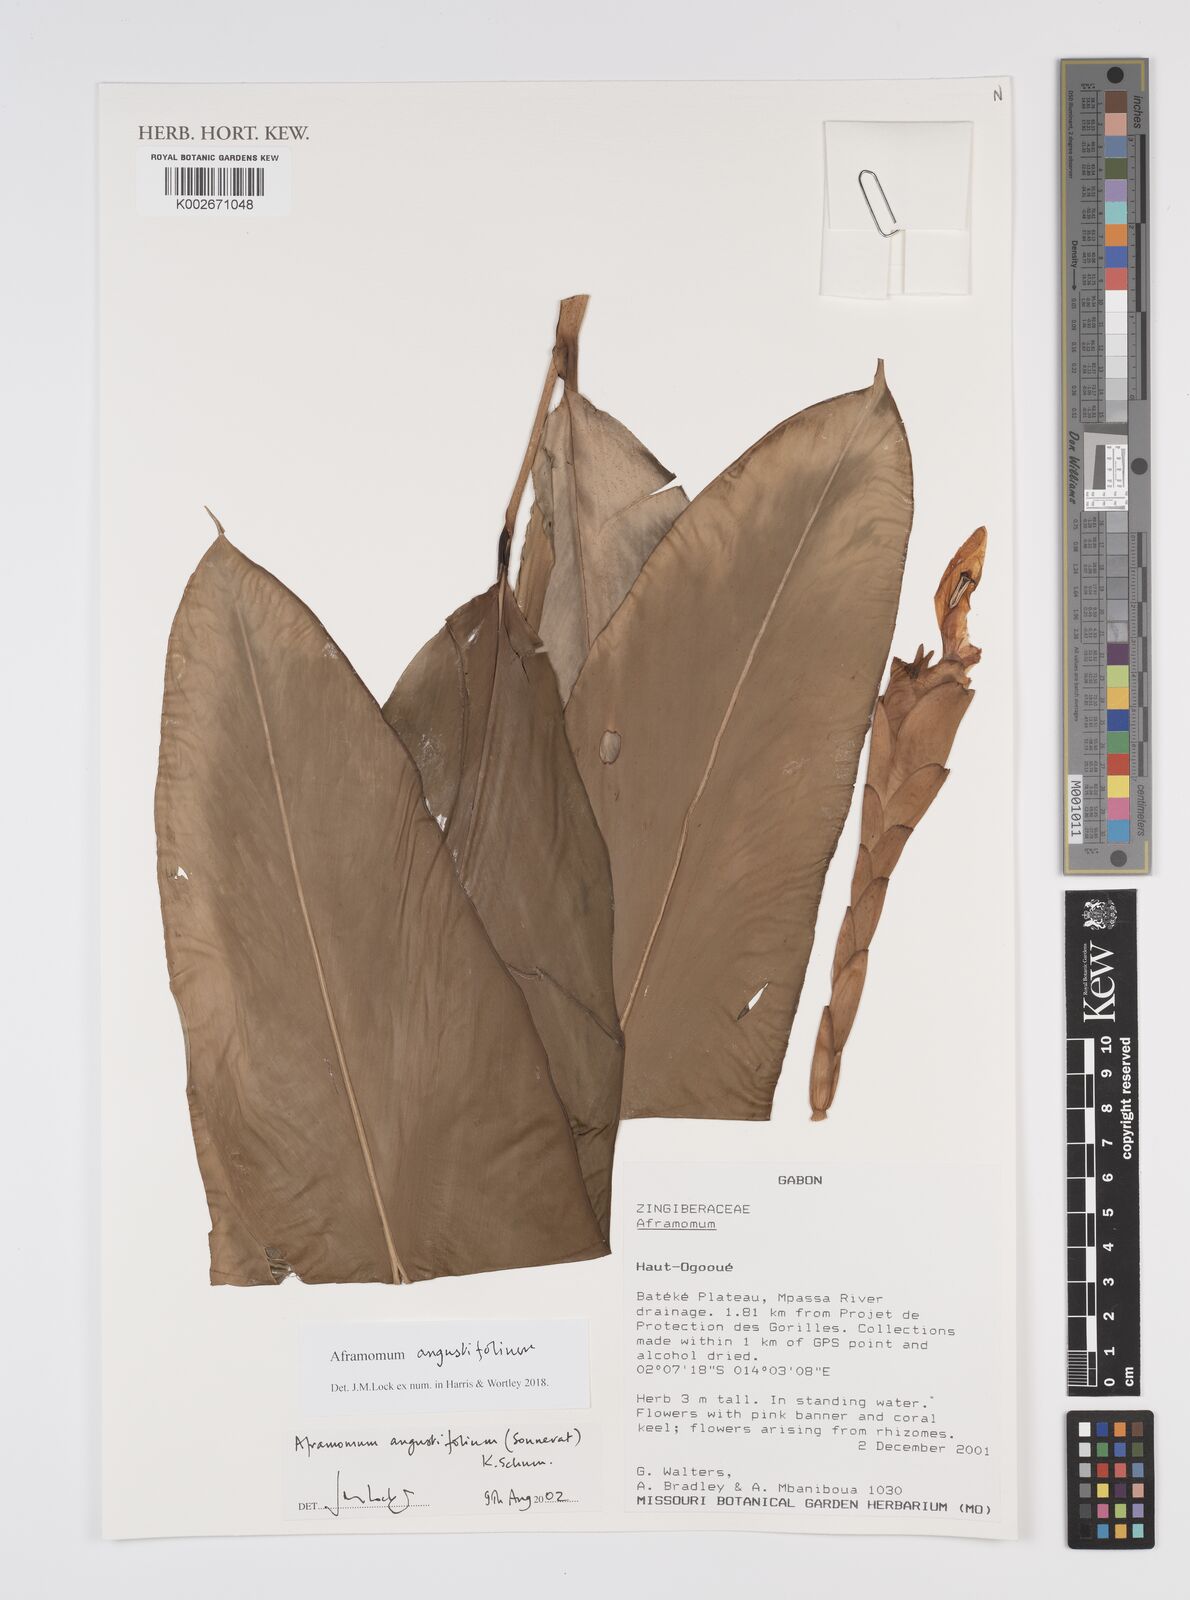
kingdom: Plantae
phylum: Tracheophyta
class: Liliopsida
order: Zingiberales
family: Zingiberaceae
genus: Aframomum
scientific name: Aframomum angustifolium
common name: Guinea grains
